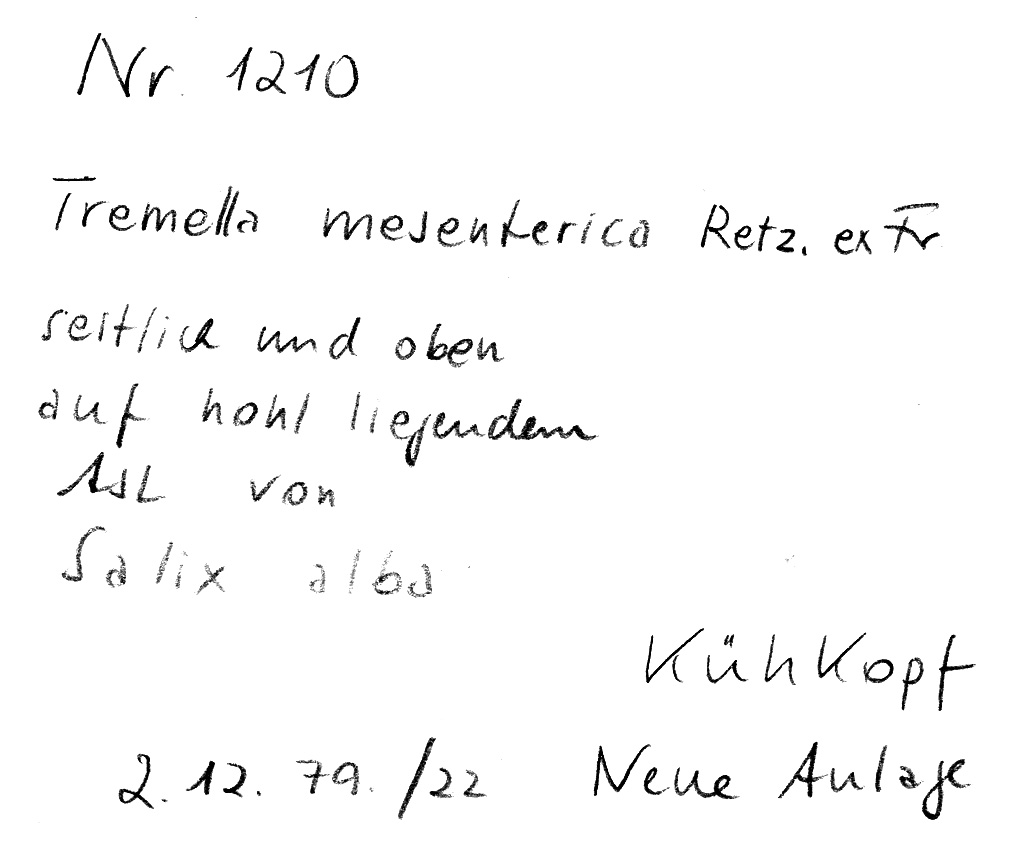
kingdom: Fungi
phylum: Basidiomycota
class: Tremellomycetes
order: Tremellales
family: Tremellaceae
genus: Tremella
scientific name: Tremella mesenterica
